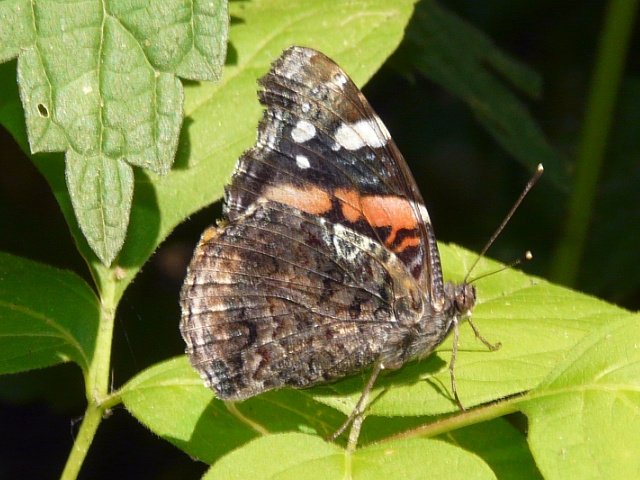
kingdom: Animalia
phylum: Arthropoda
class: Insecta
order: Lepidoptera
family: Nymphalidae
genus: Vanessa
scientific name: Vanessa atalanta
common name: Red Admiral
